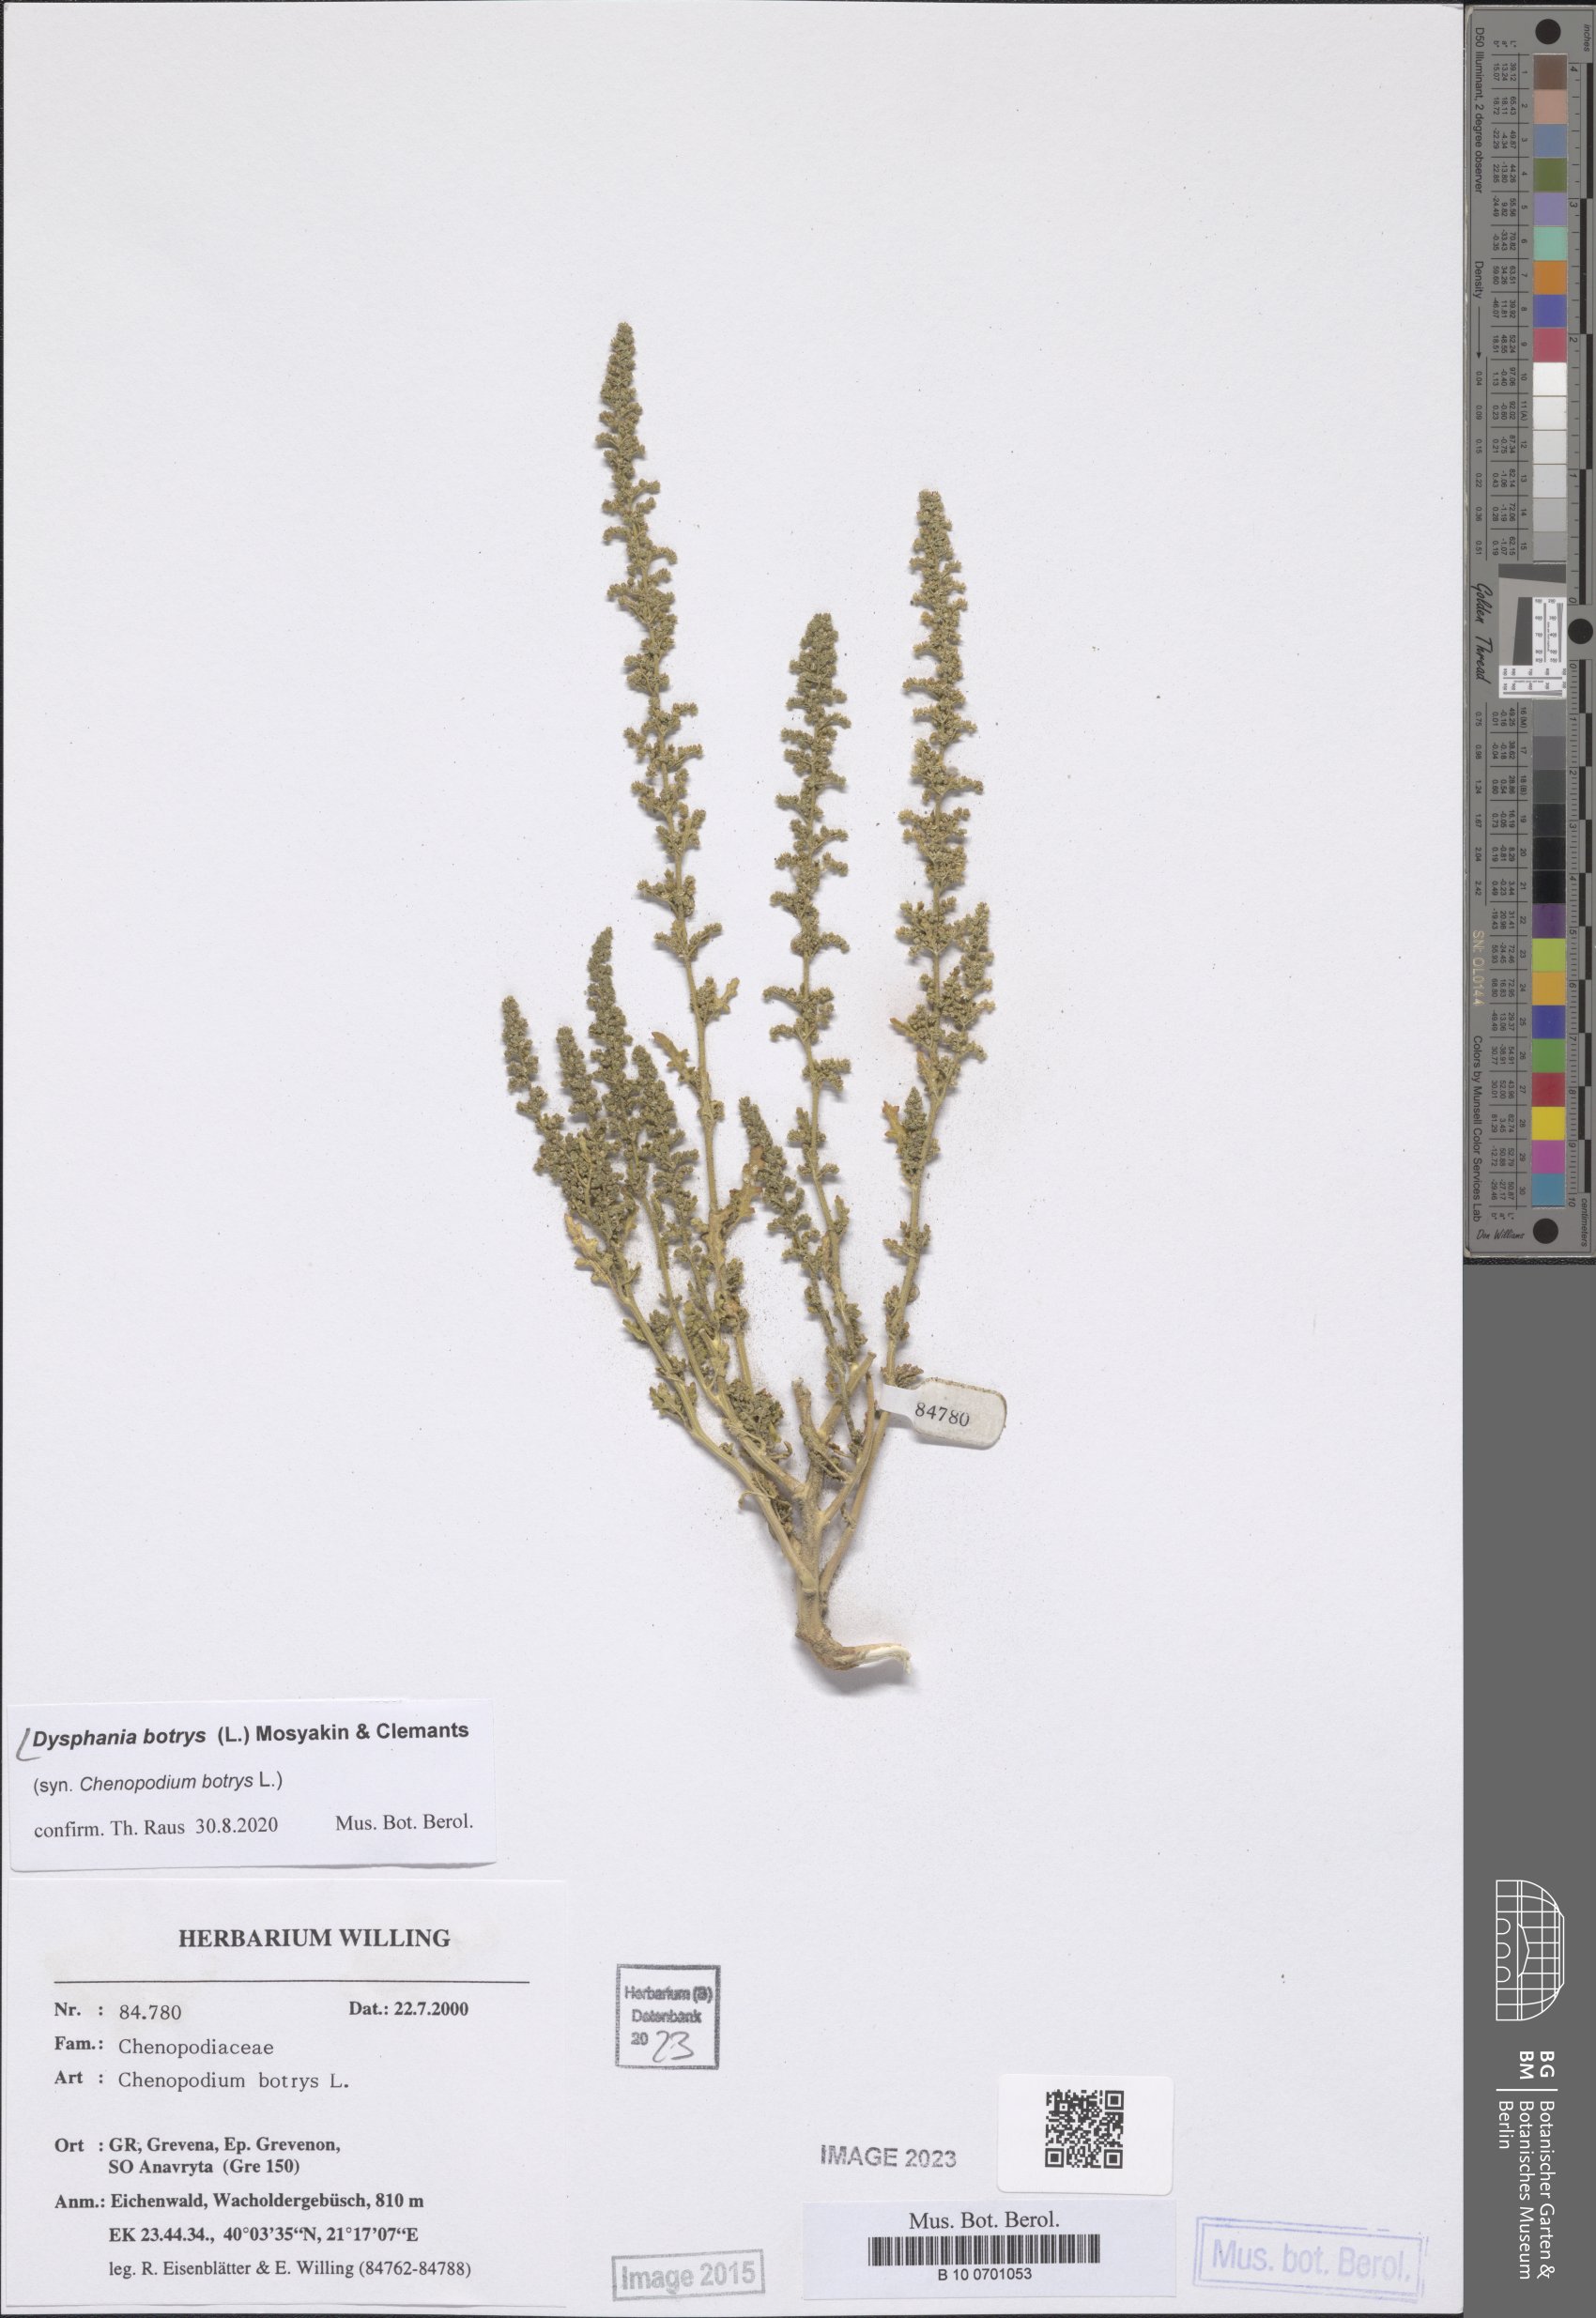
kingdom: Plantae
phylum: Tracheophyta
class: Magnoliopsida
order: Caryophyllales
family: Amaranthaceae
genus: Dysphania
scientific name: Dysphania botrys
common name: Feather-geranium
